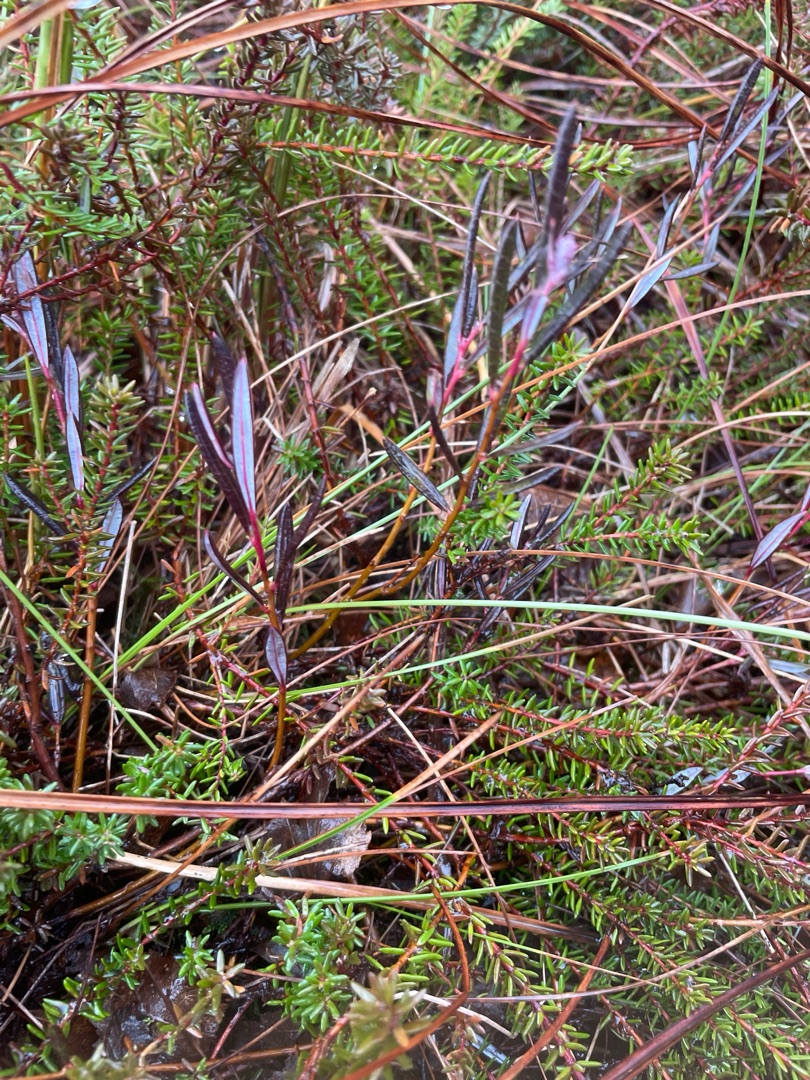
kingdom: Plantae
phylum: Tracheophyta
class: Magnoliopsida
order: Ericales
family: Ericaceae
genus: Andromeda
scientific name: Andromeda polifolia
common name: Rosmarinlyng
